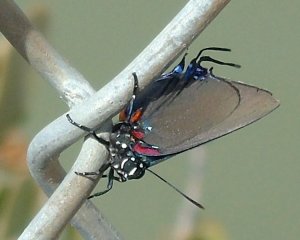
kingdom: Animalia
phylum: Arthropoda
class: Insecta
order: Lepidoptera
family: Lycaenidae
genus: Atlides
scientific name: Atlides halesus
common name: Great Purple Hairstreak
